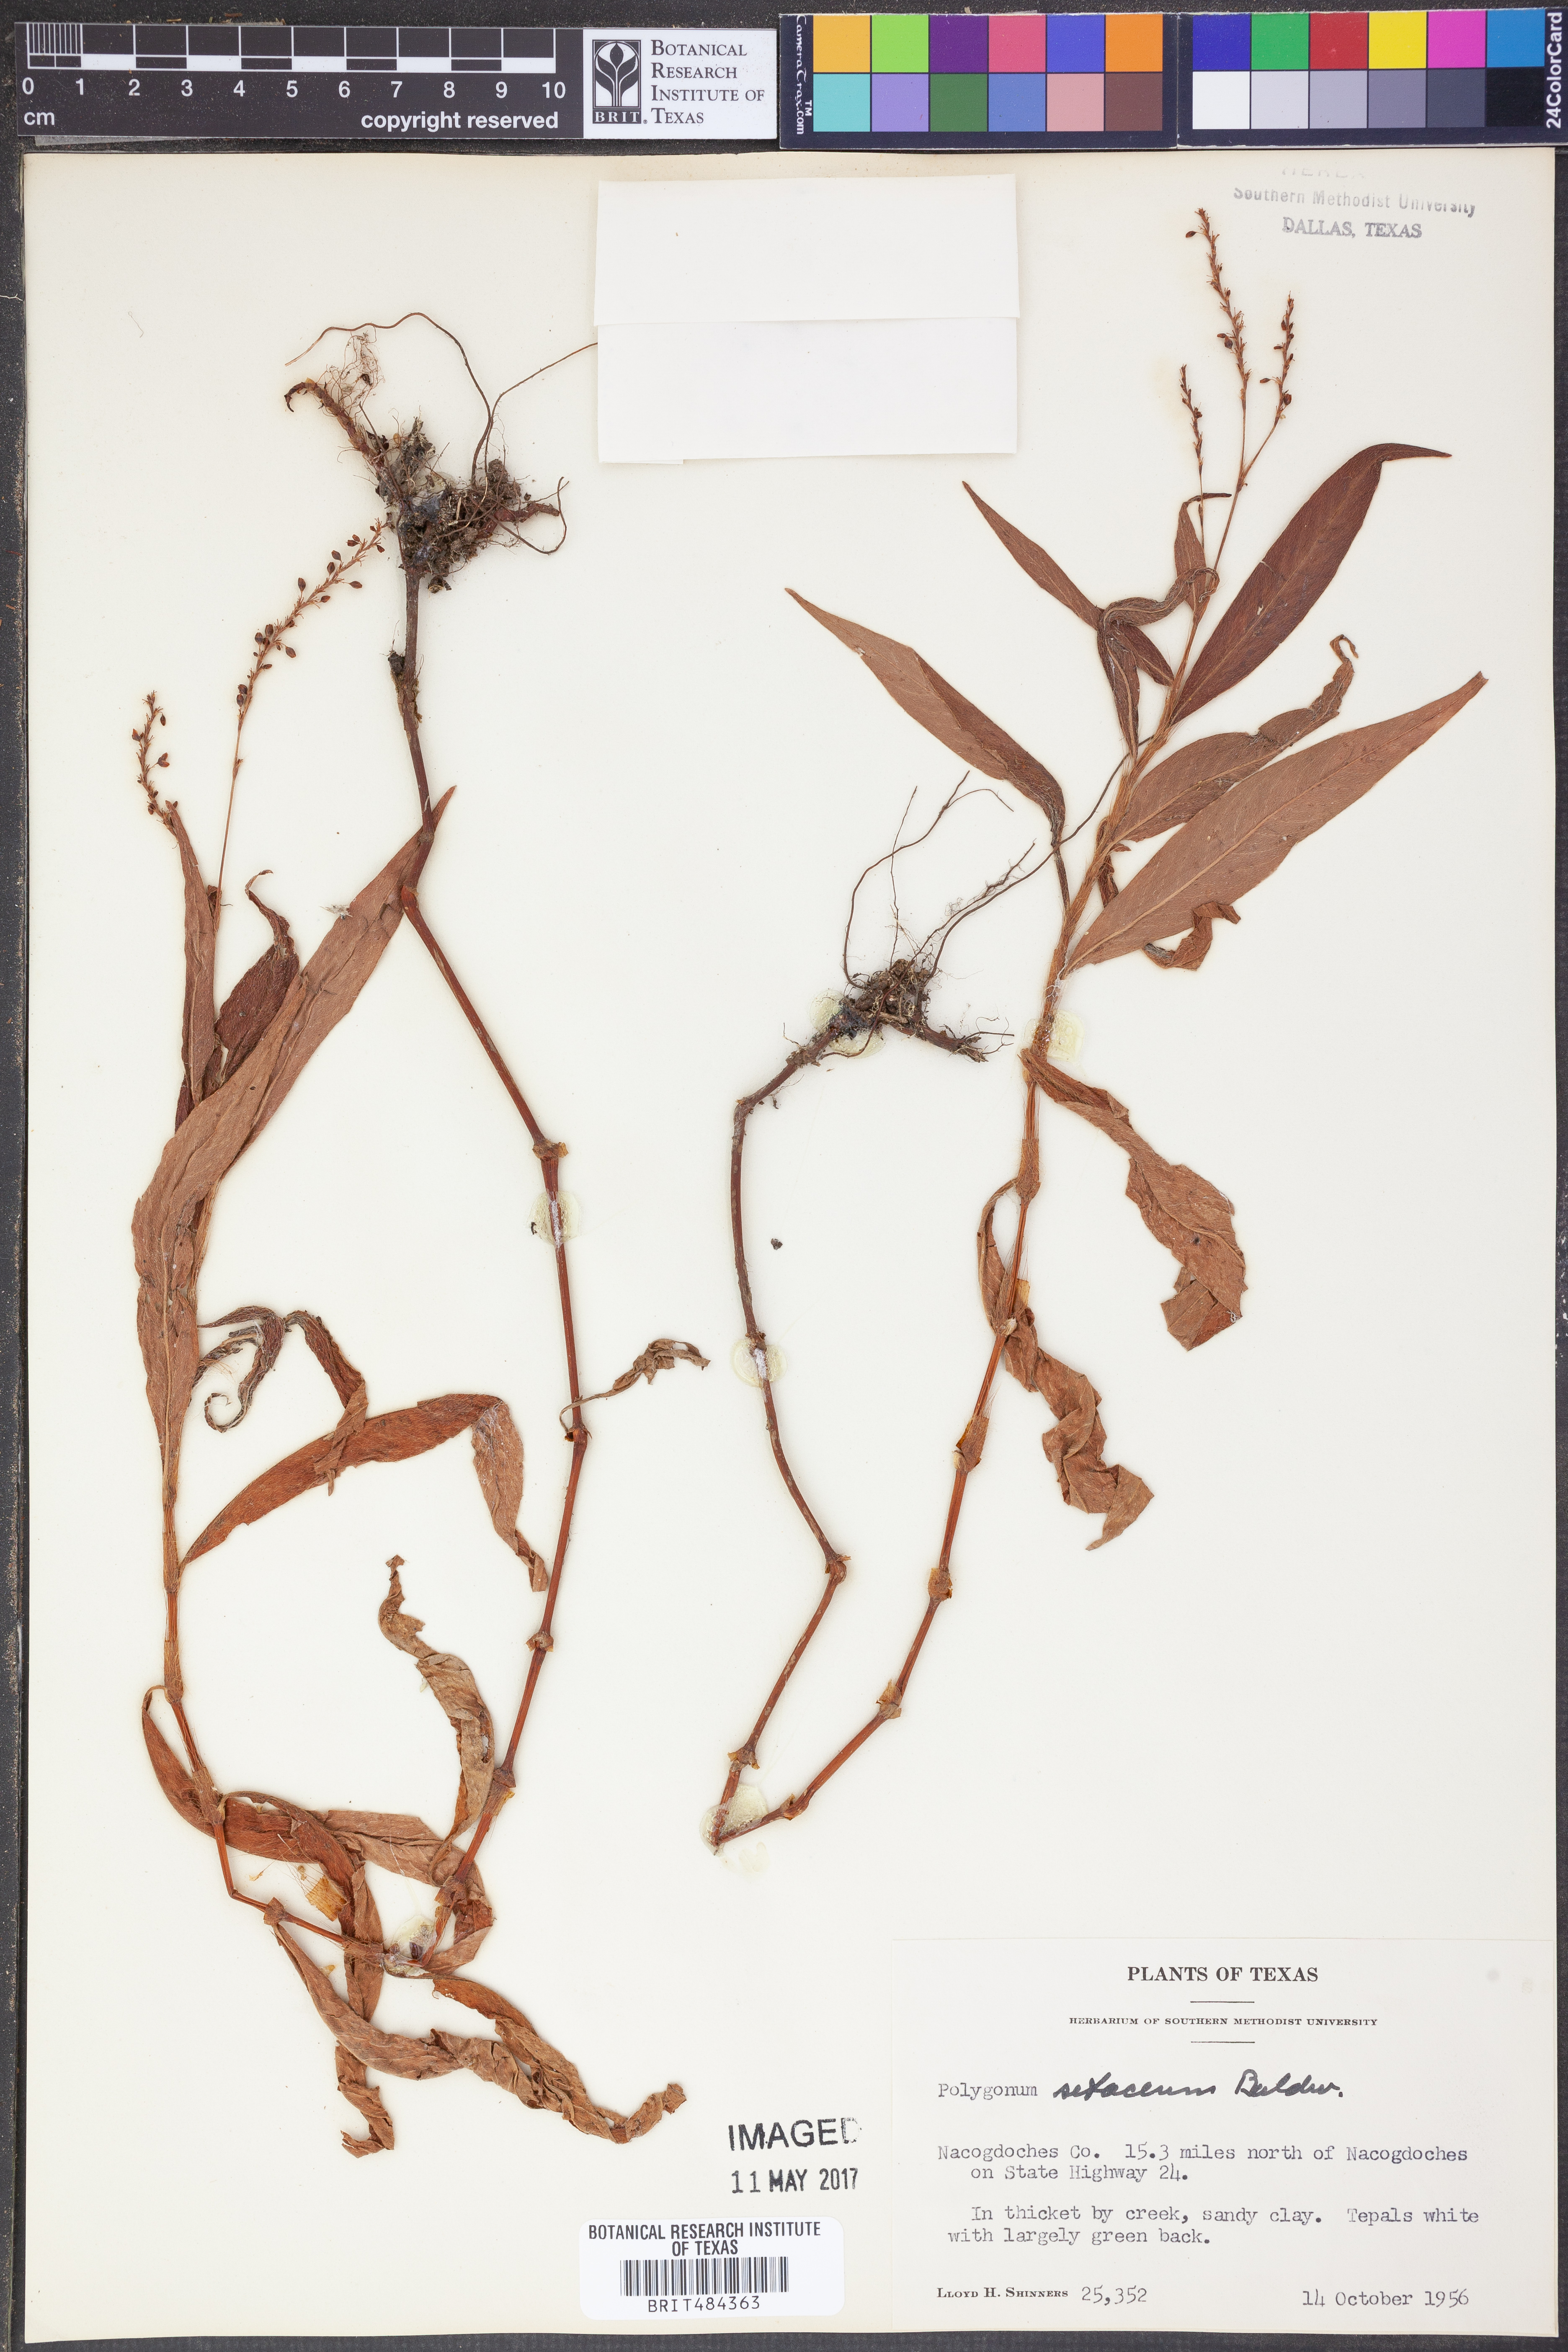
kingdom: Plantae
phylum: Tracheophyta
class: Magnoliopsida
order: Caryophyllales
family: Polygonaceae
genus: Persicaria
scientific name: Persicaria setacea
